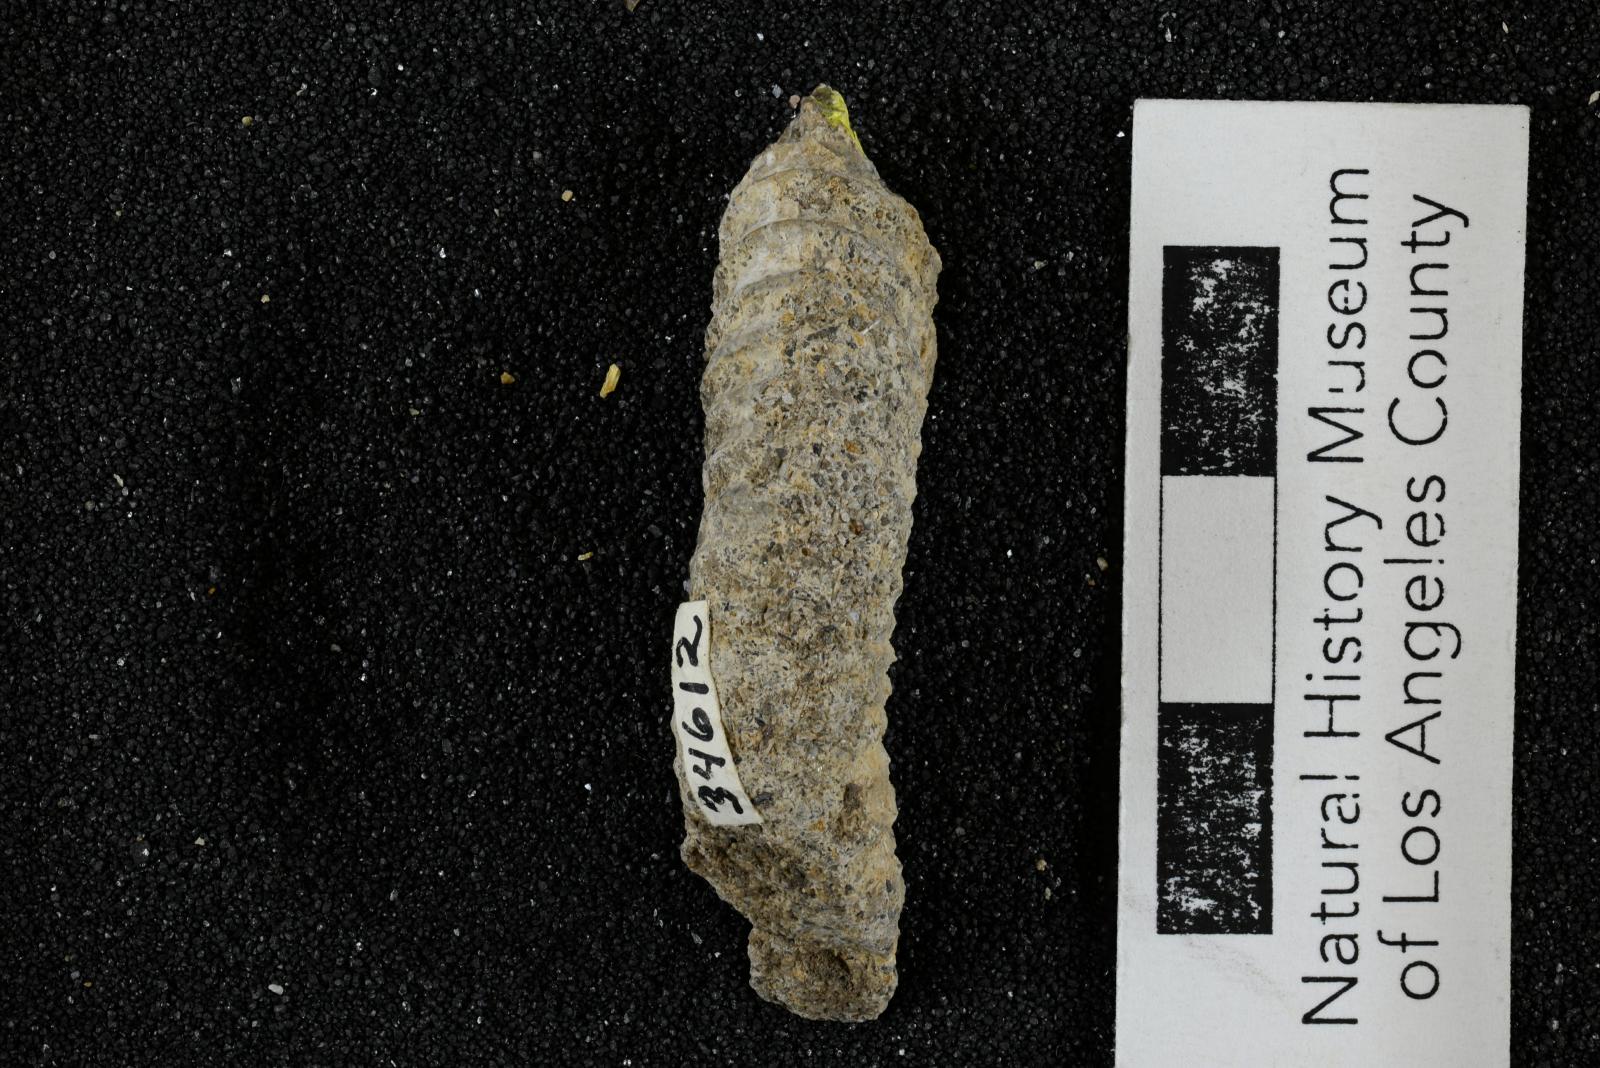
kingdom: Animalia
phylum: Mollusca
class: Cephalopoda
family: Nostoceratidae
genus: Nostoceras
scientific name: Nostoceras
